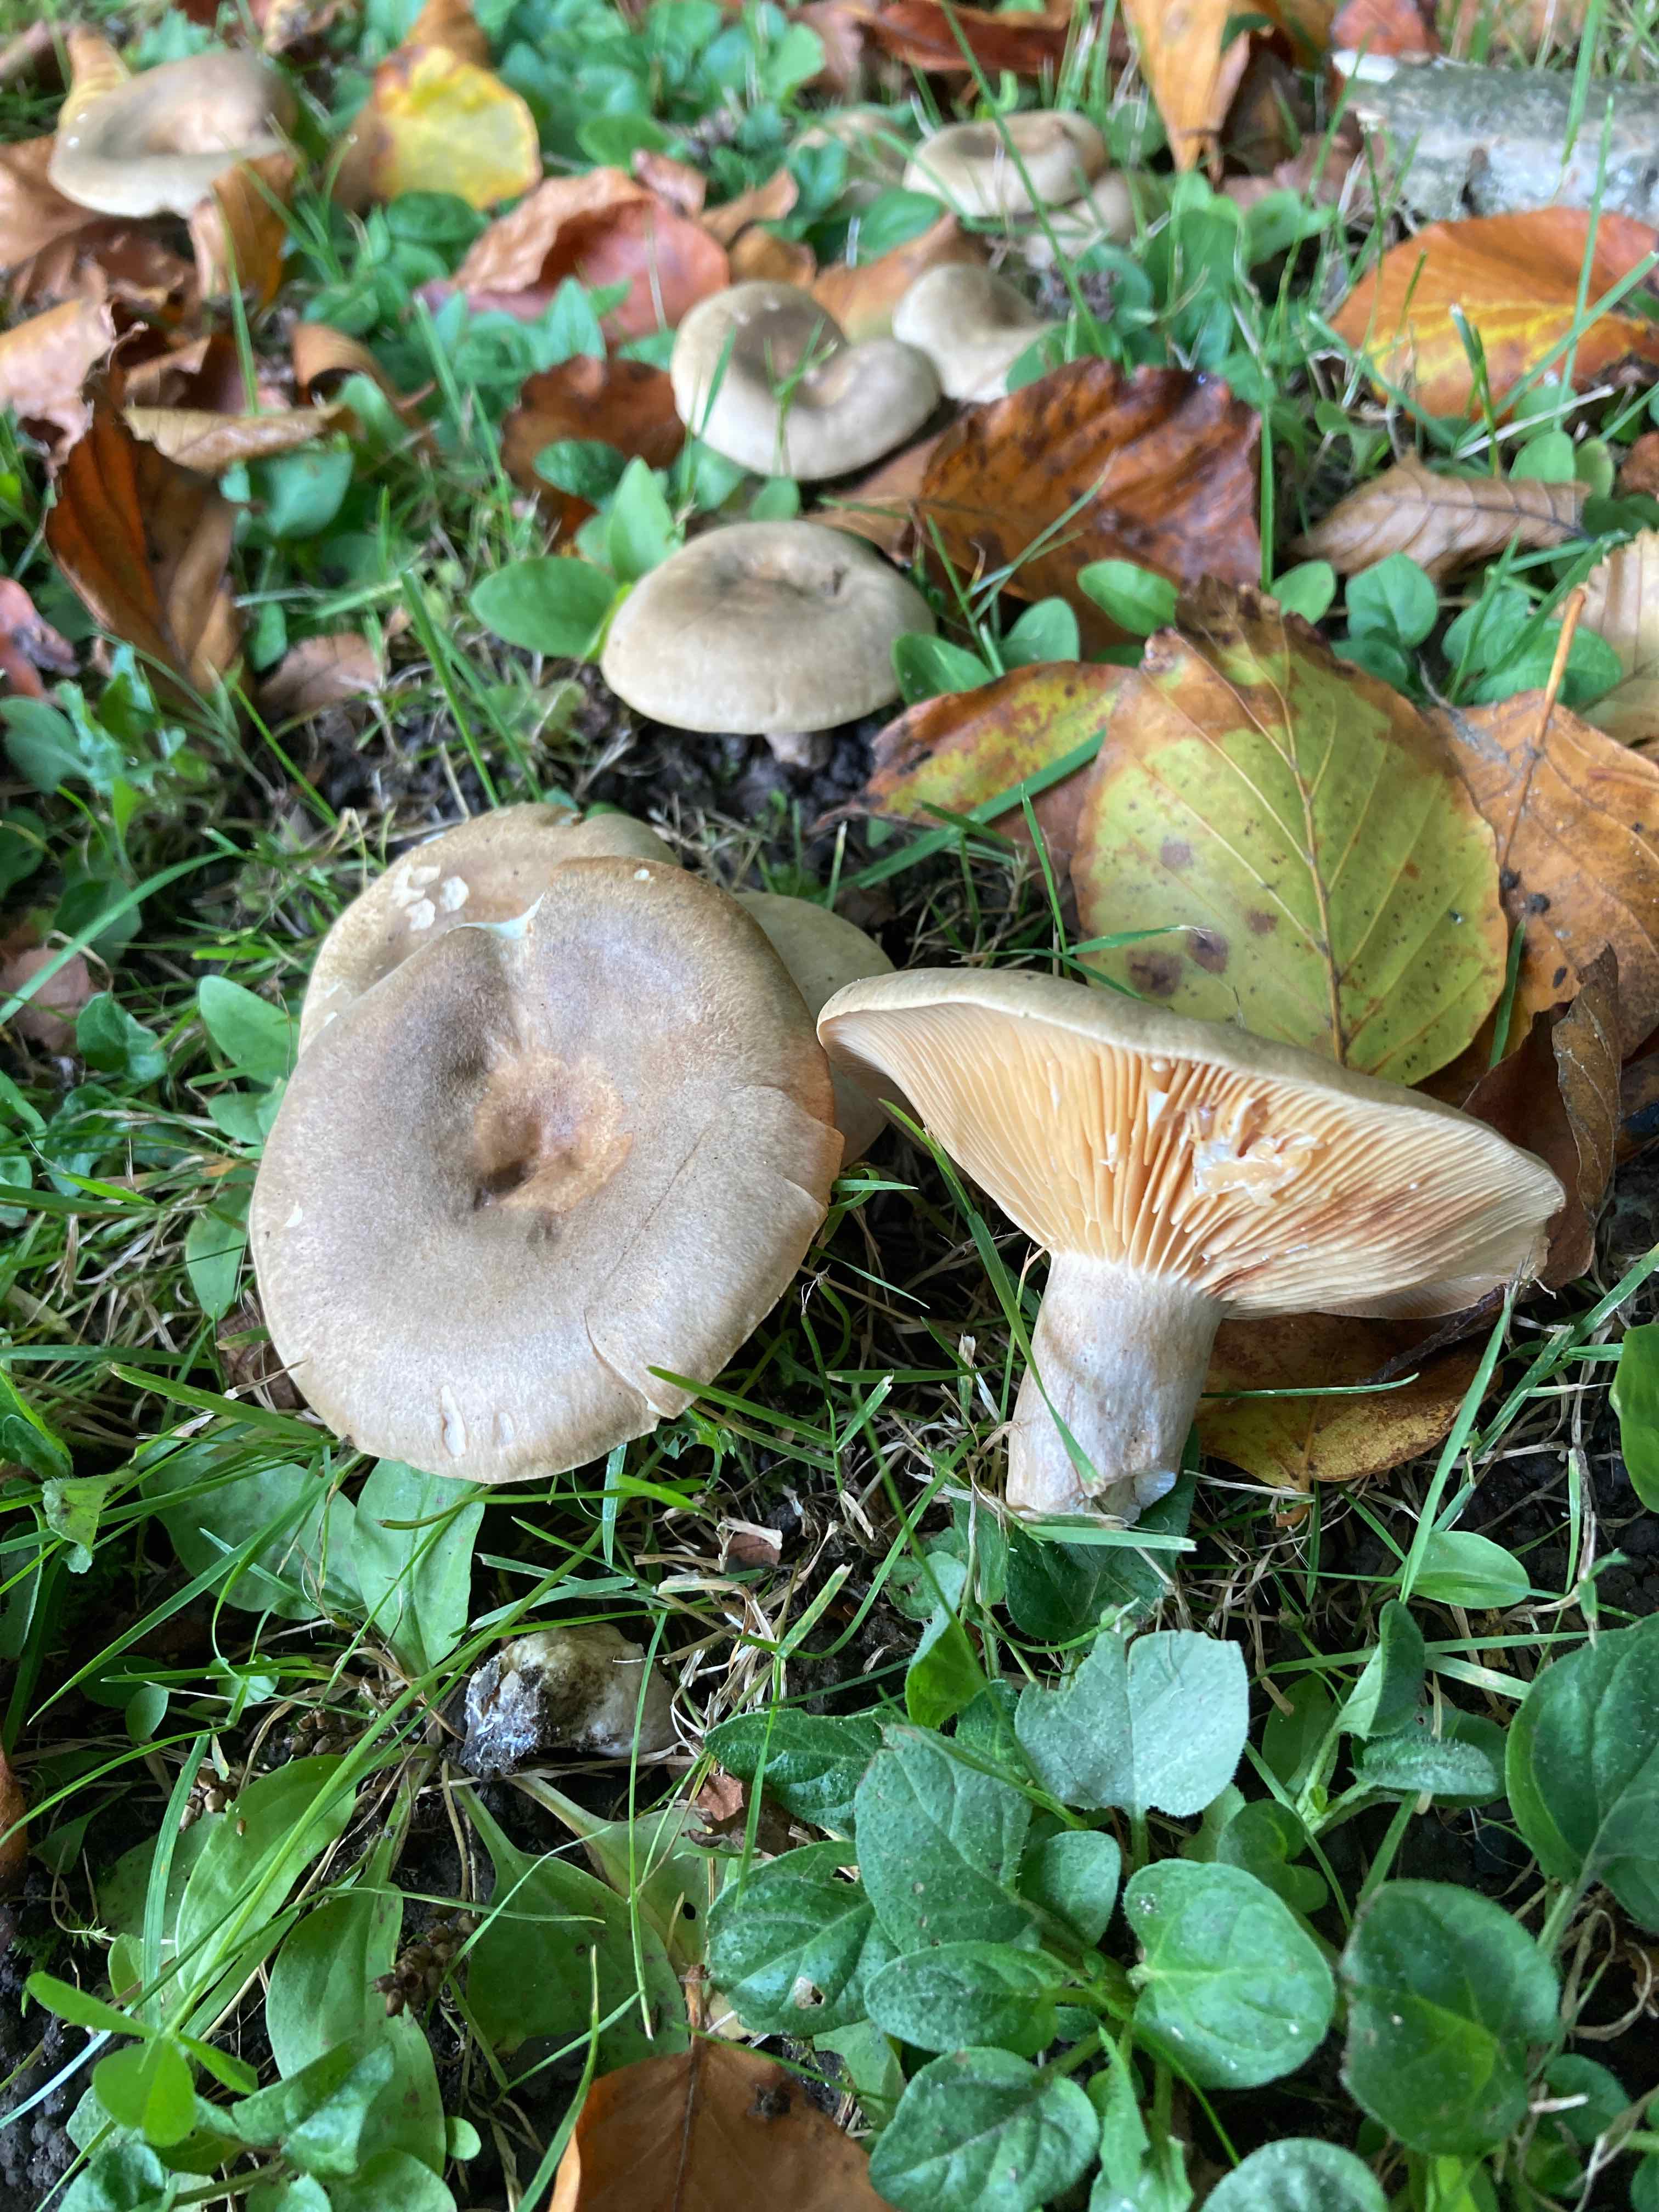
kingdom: Fungi
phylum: Basidiomycota
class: Agaricomycetes
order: Russulales
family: Russulaceae
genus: Lactarius
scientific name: Lactarius pyrogalus
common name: hassel-mælkehat
